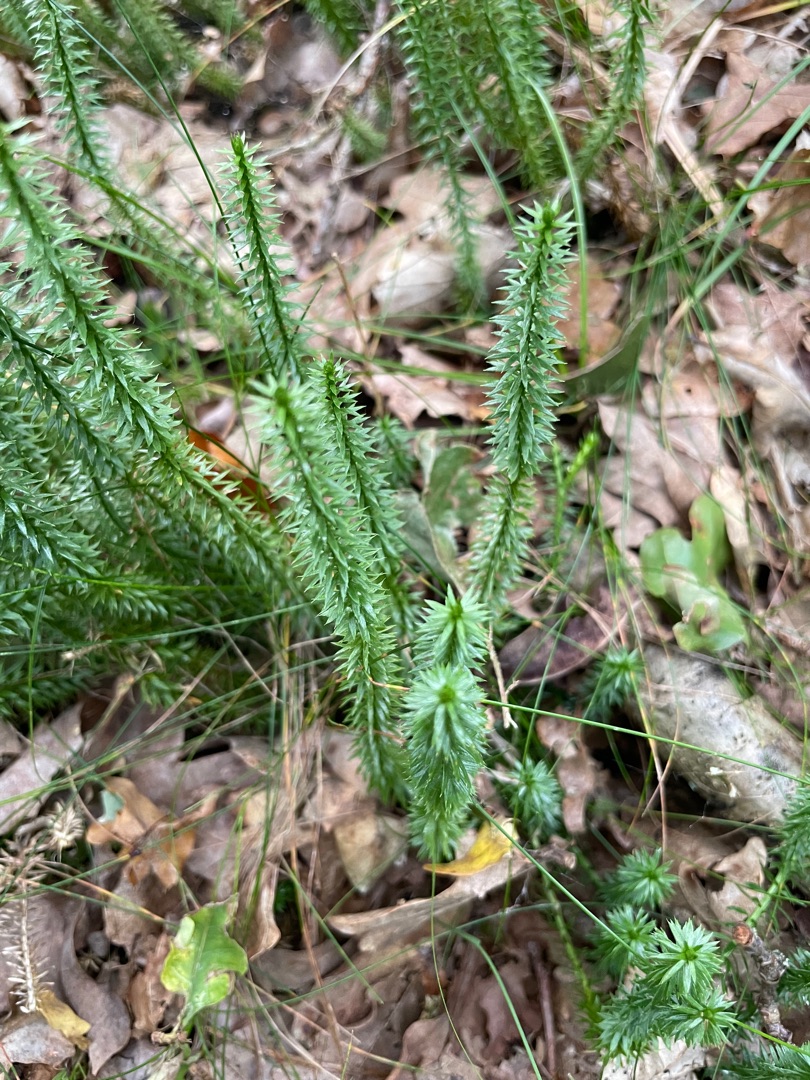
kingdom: Plantae
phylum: Tracheophyta
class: Lycopodiopsida
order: Lycopodiales
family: Lycopodiaceae
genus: Spinulum
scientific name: Spinulum annotinum
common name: Femradet ulvefod
